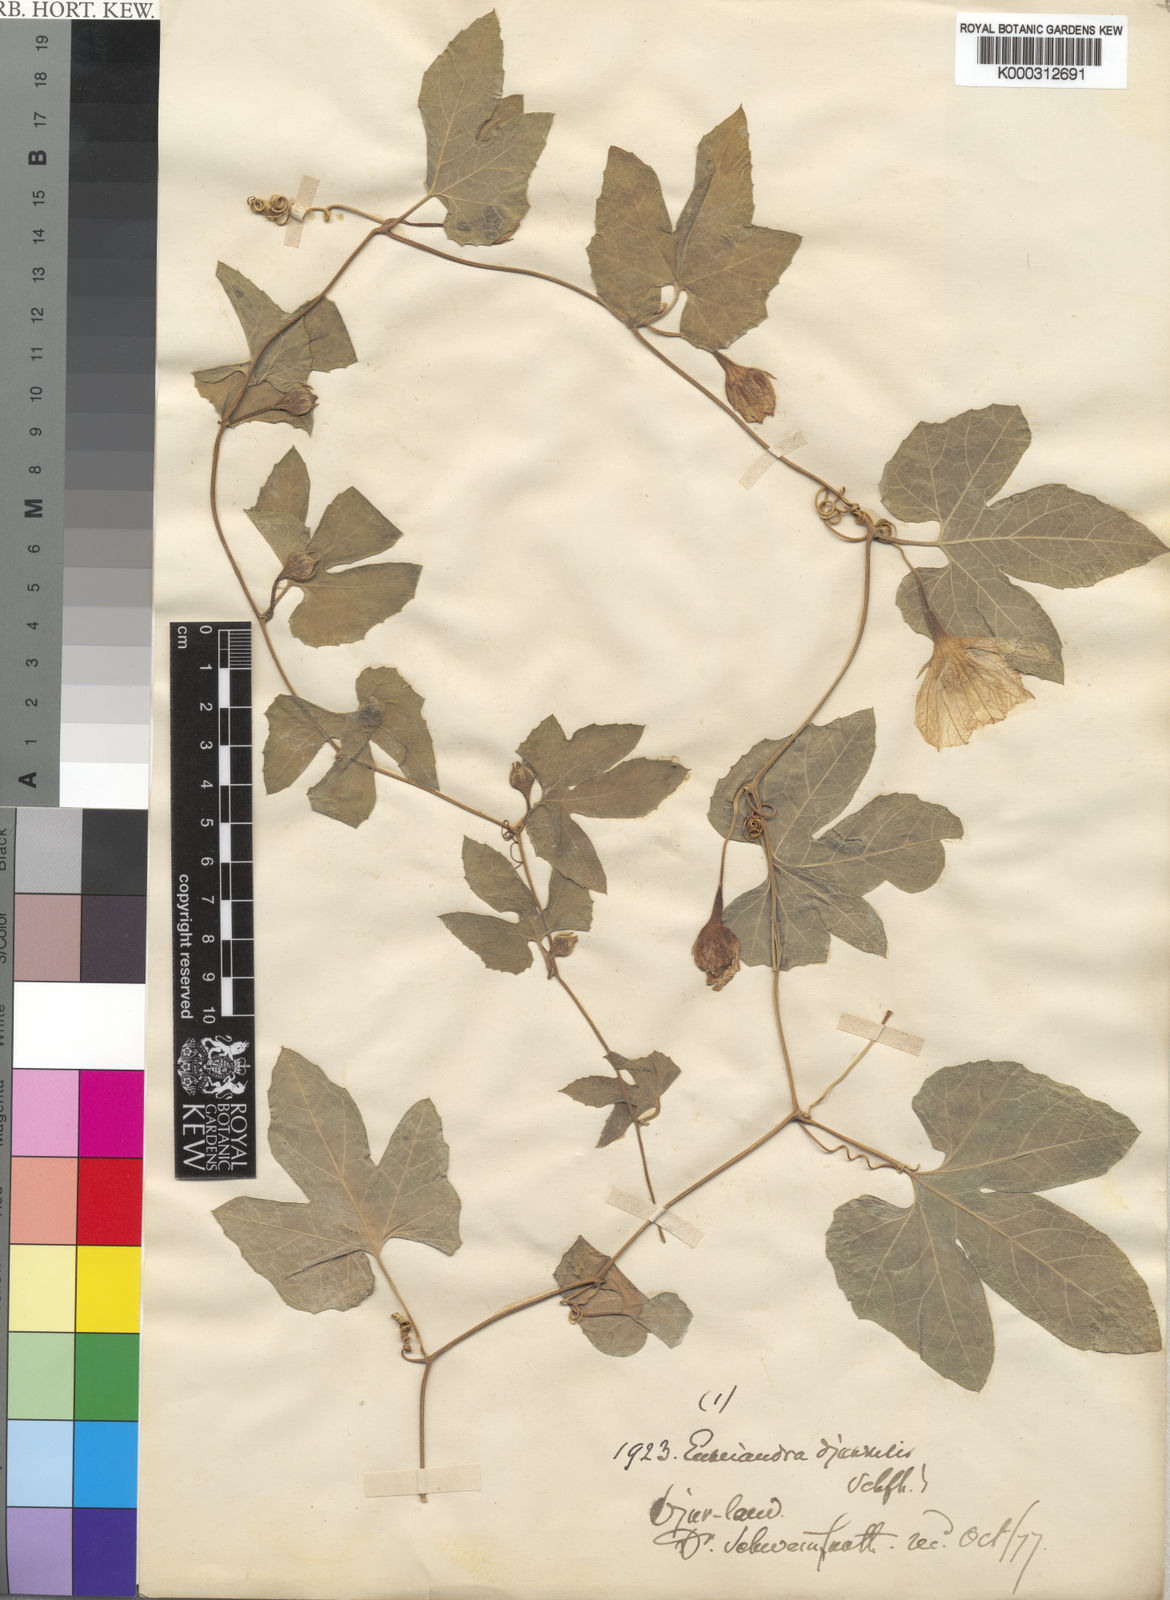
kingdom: Plantae
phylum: Tracheophyta
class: Magnoliopsida
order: Cucurbitales
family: Cucurbitaceae
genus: Eureiandra
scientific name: Eureiandra formosa
